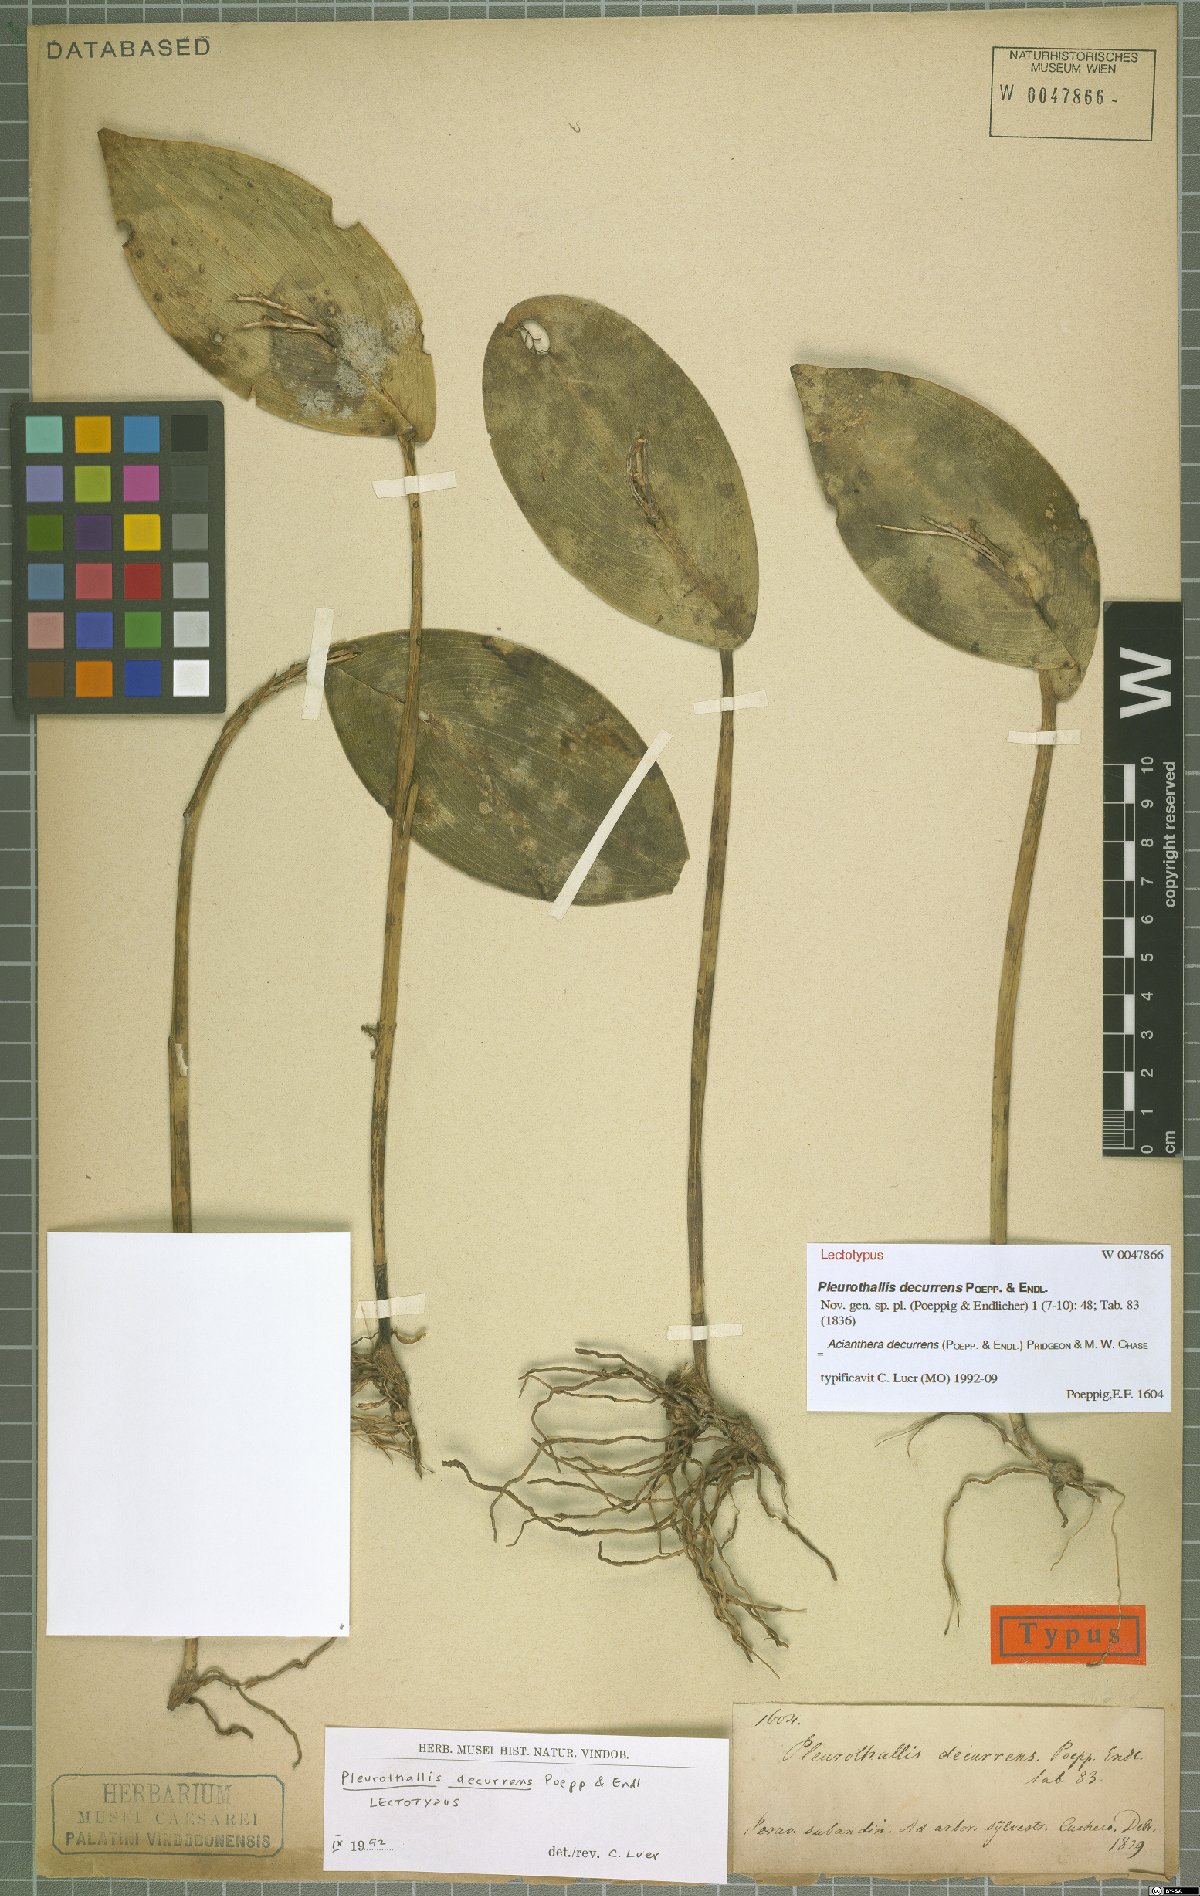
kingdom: Plantae
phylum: Tracheophyta
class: Liliopsida
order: Asparagales
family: Orchidaceae
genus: Acianthera
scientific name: Acianthera decurrens
